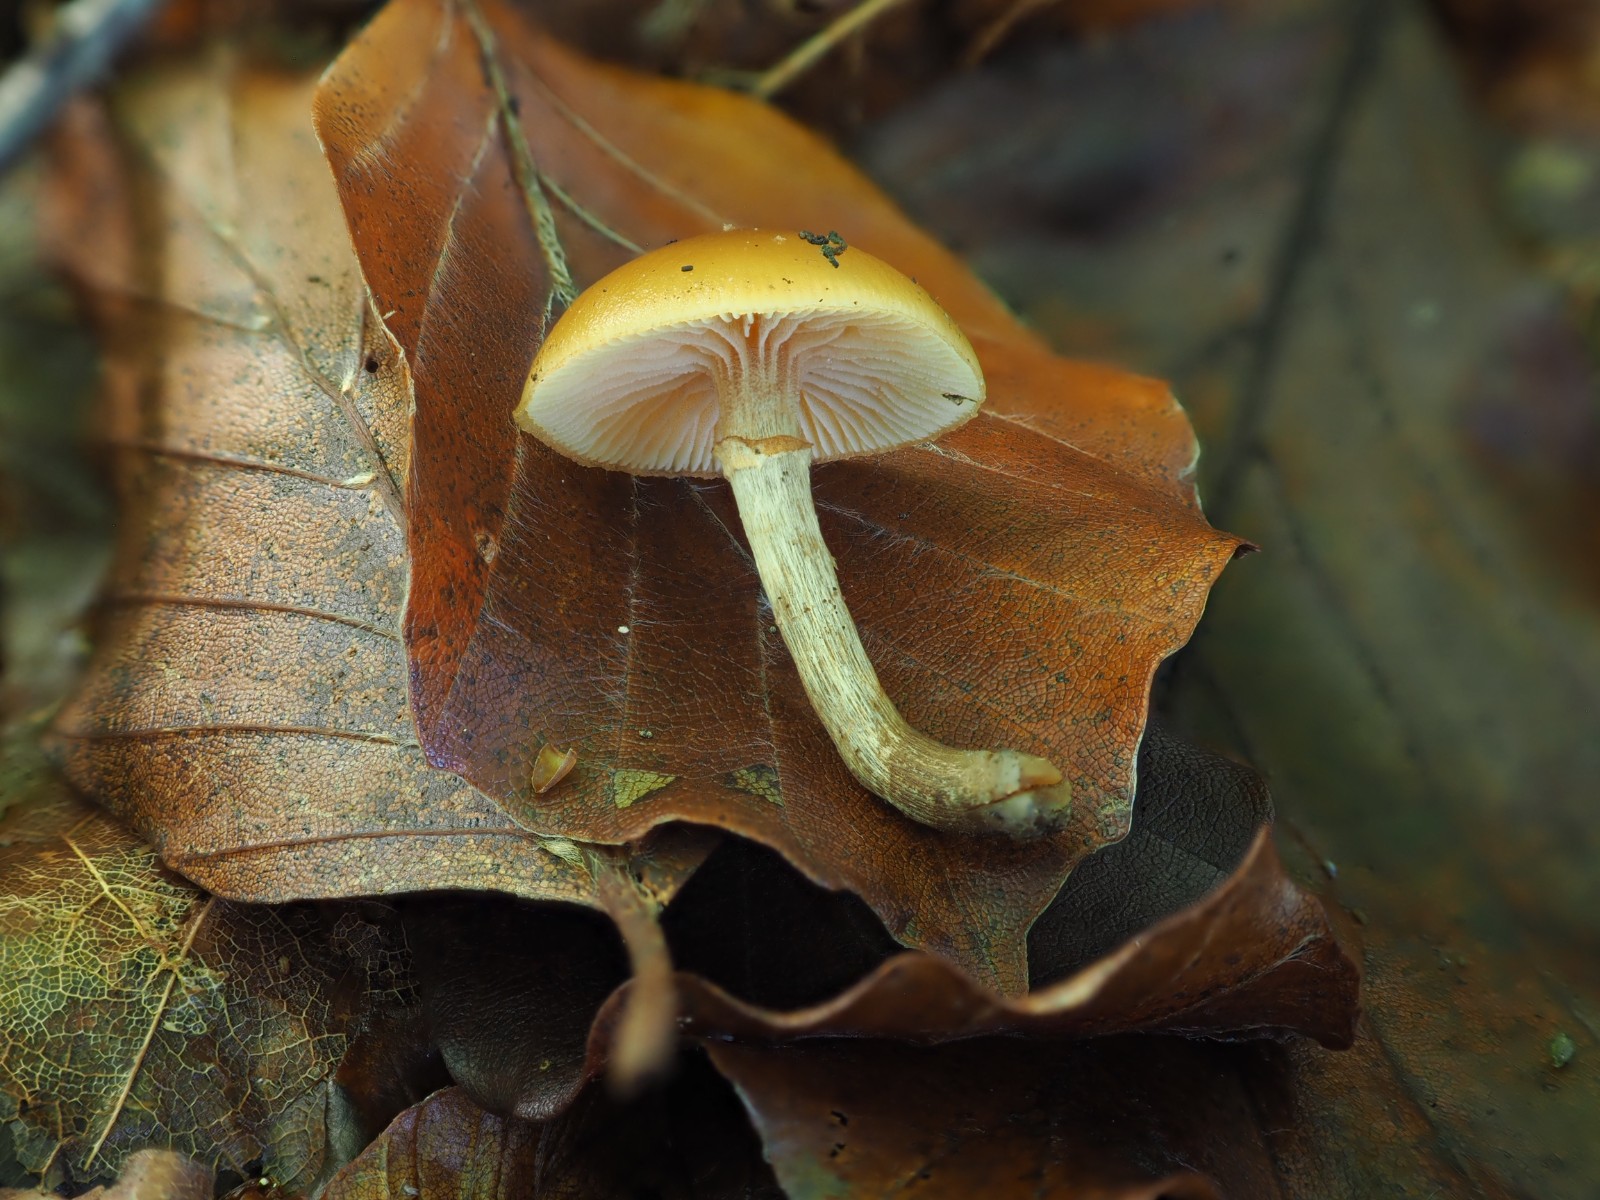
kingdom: Fungi
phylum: Basidiomycota
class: Agaricomycetes
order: Agaricales
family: Hymenogastraceae
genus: Galerina
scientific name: Galerina marginata
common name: randbæltet hjelmhat
